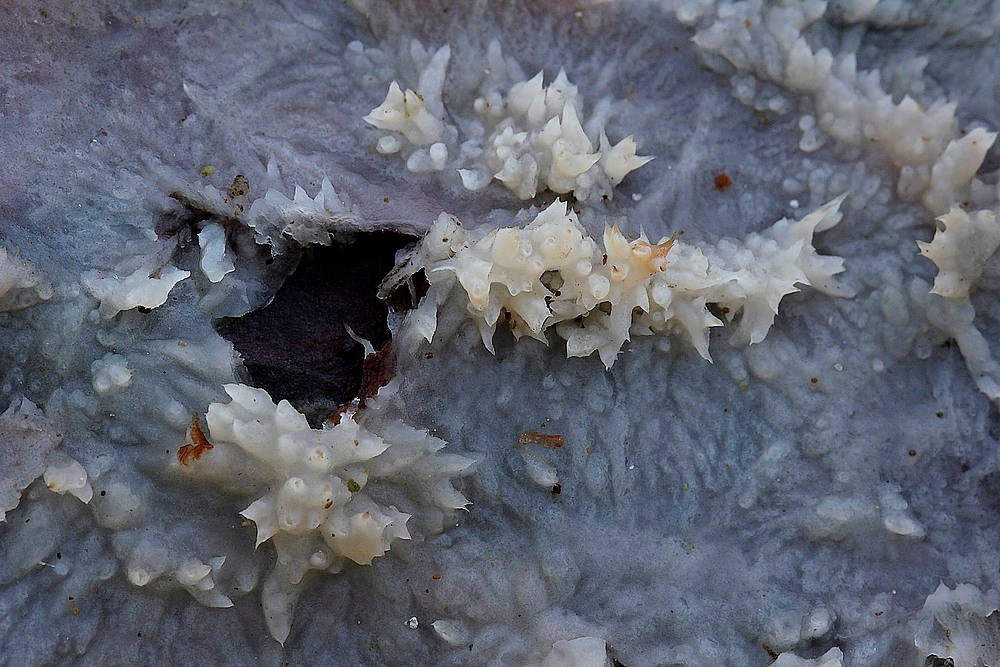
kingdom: Fungi
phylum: Basidiomycota
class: Agaricomycetes
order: Polyporales
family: Phanerochaetaceae
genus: Phlebiopsis
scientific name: Phlebiopsis gigantea
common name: kæmpebarksvamp
